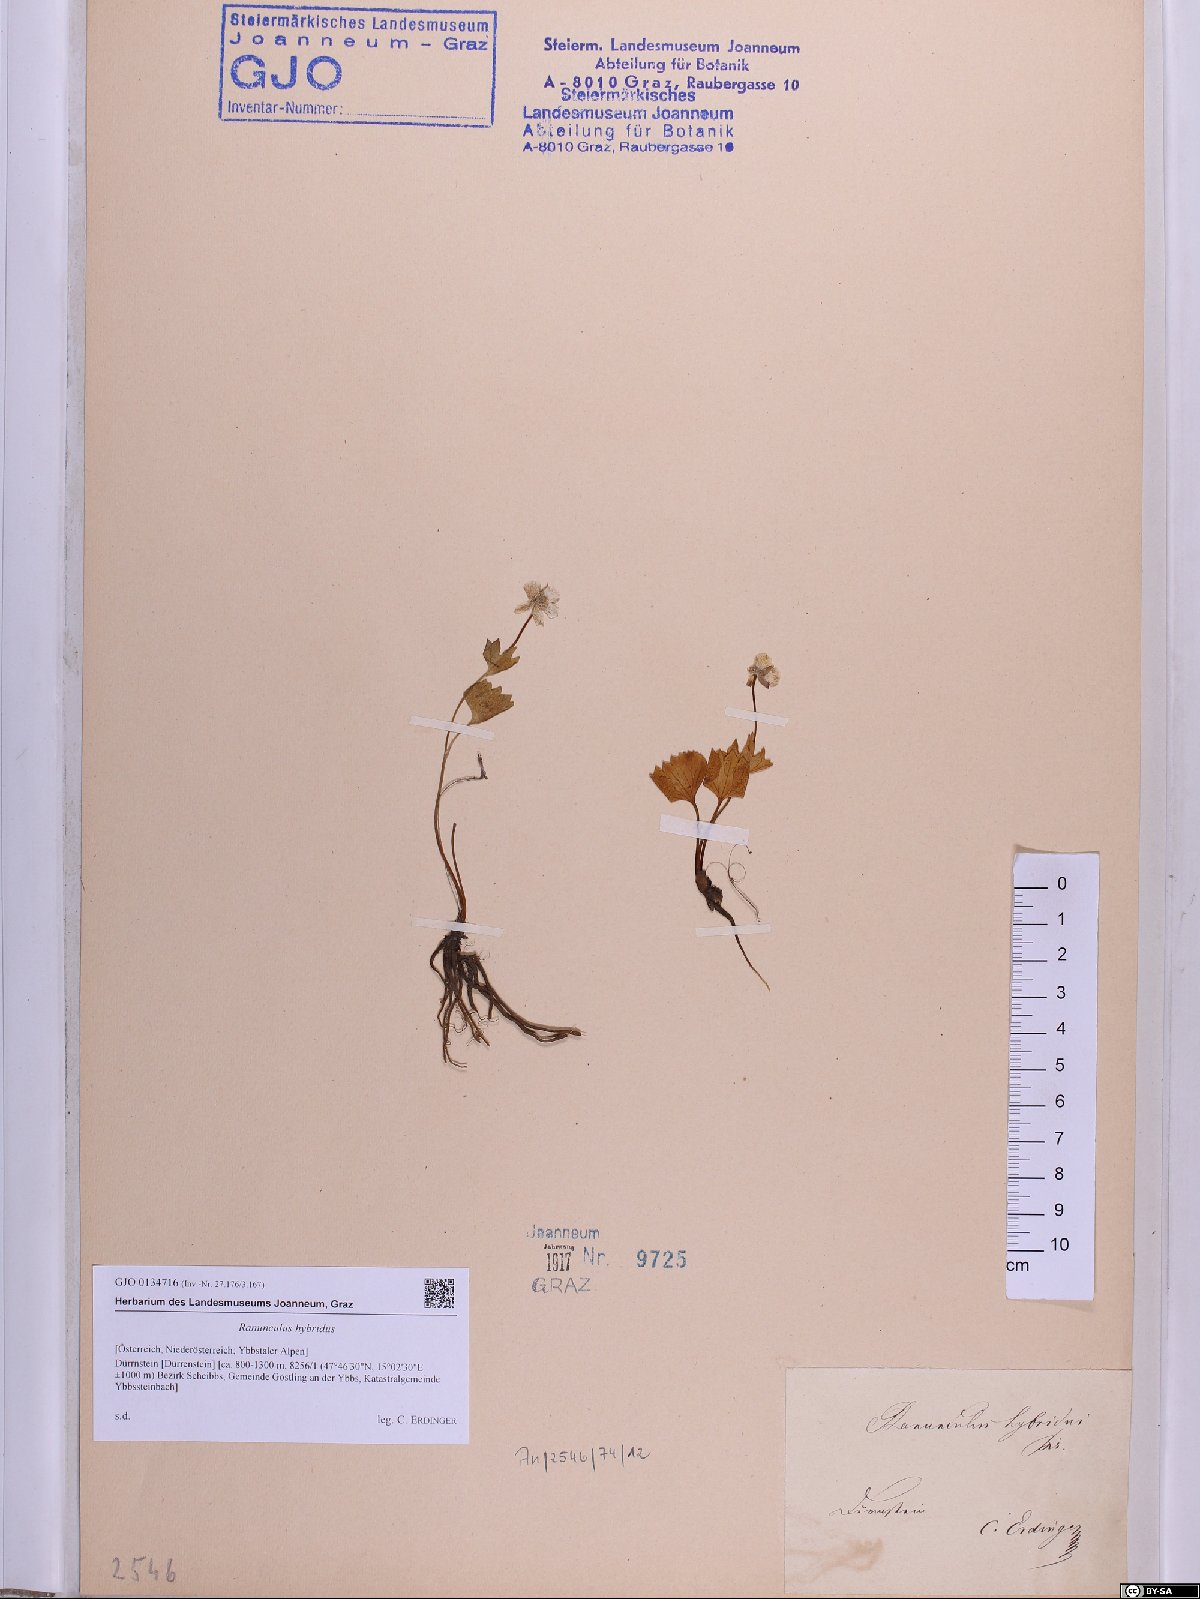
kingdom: Plantae
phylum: Tracheophyta
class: Magnoliopsida
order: Ranunculales
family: Ranunculaceae
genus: Ranunculus
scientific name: Ranunculus hybridus
